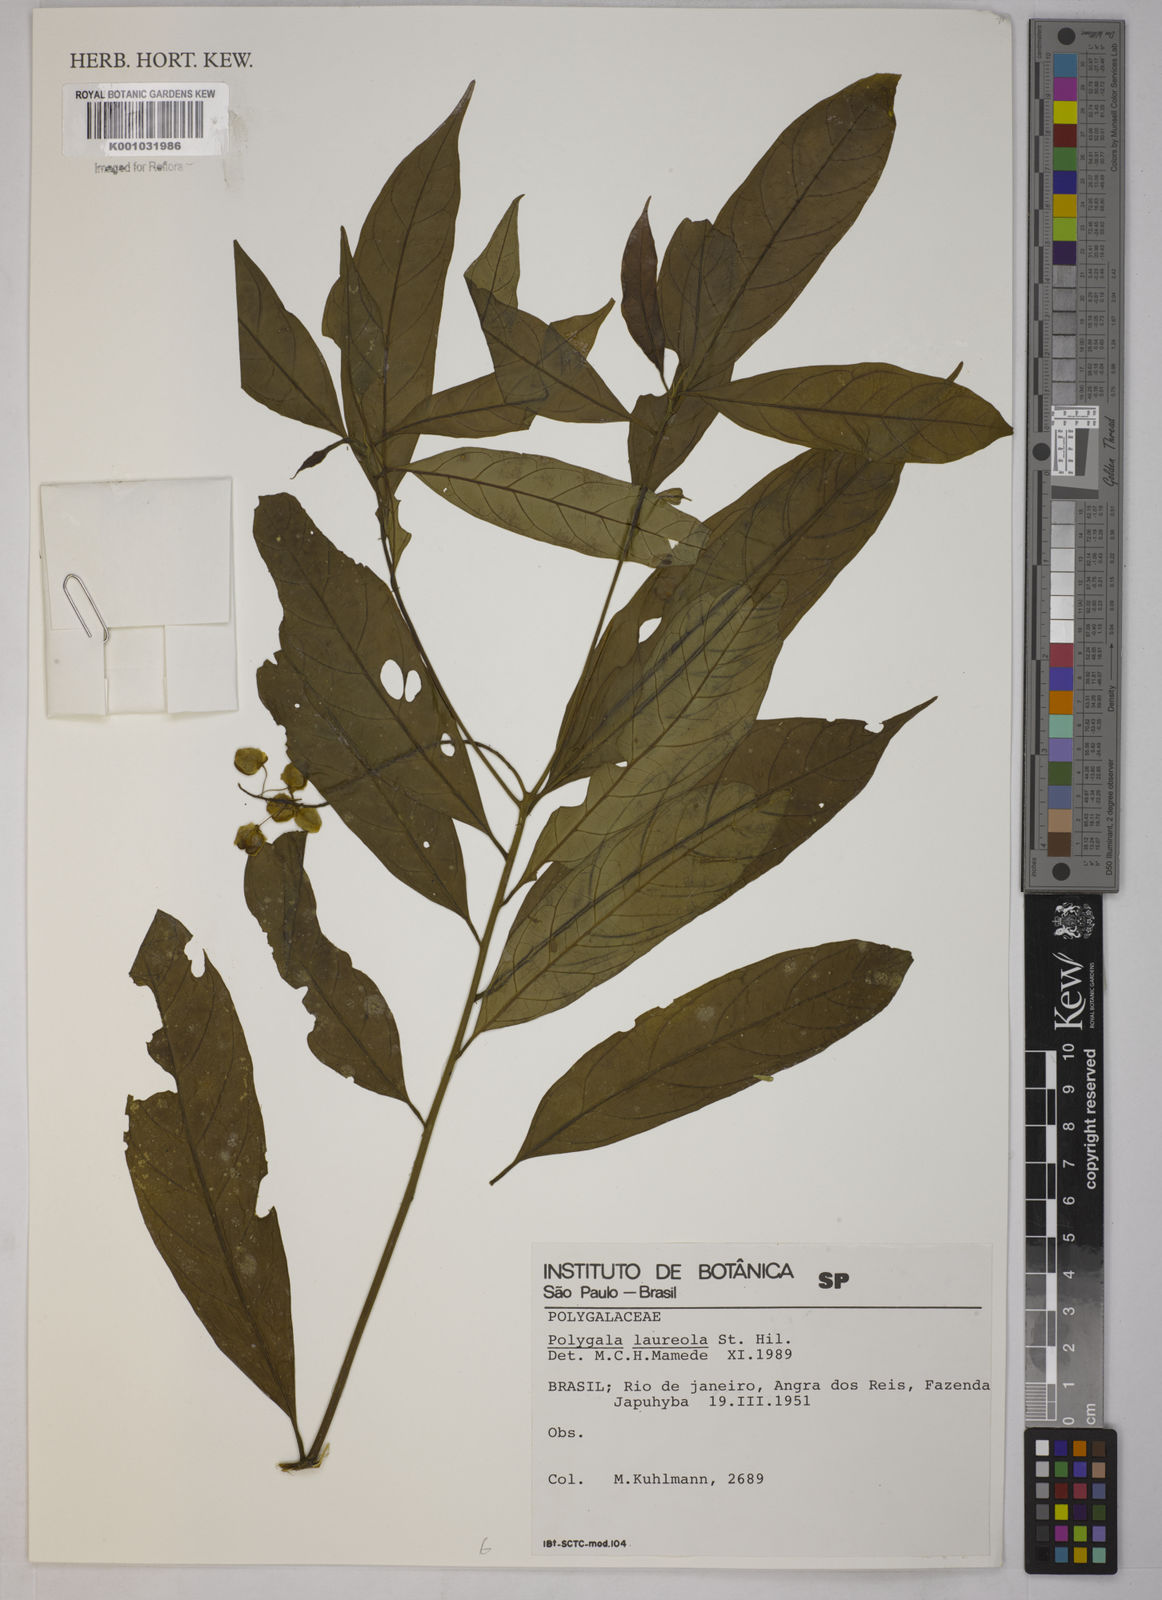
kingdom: Plantae
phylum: Tracheophyta
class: Magnoliopsida
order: Fabales
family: Polygalaceae
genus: Caamembeca
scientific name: Caamembeca salicifolia
